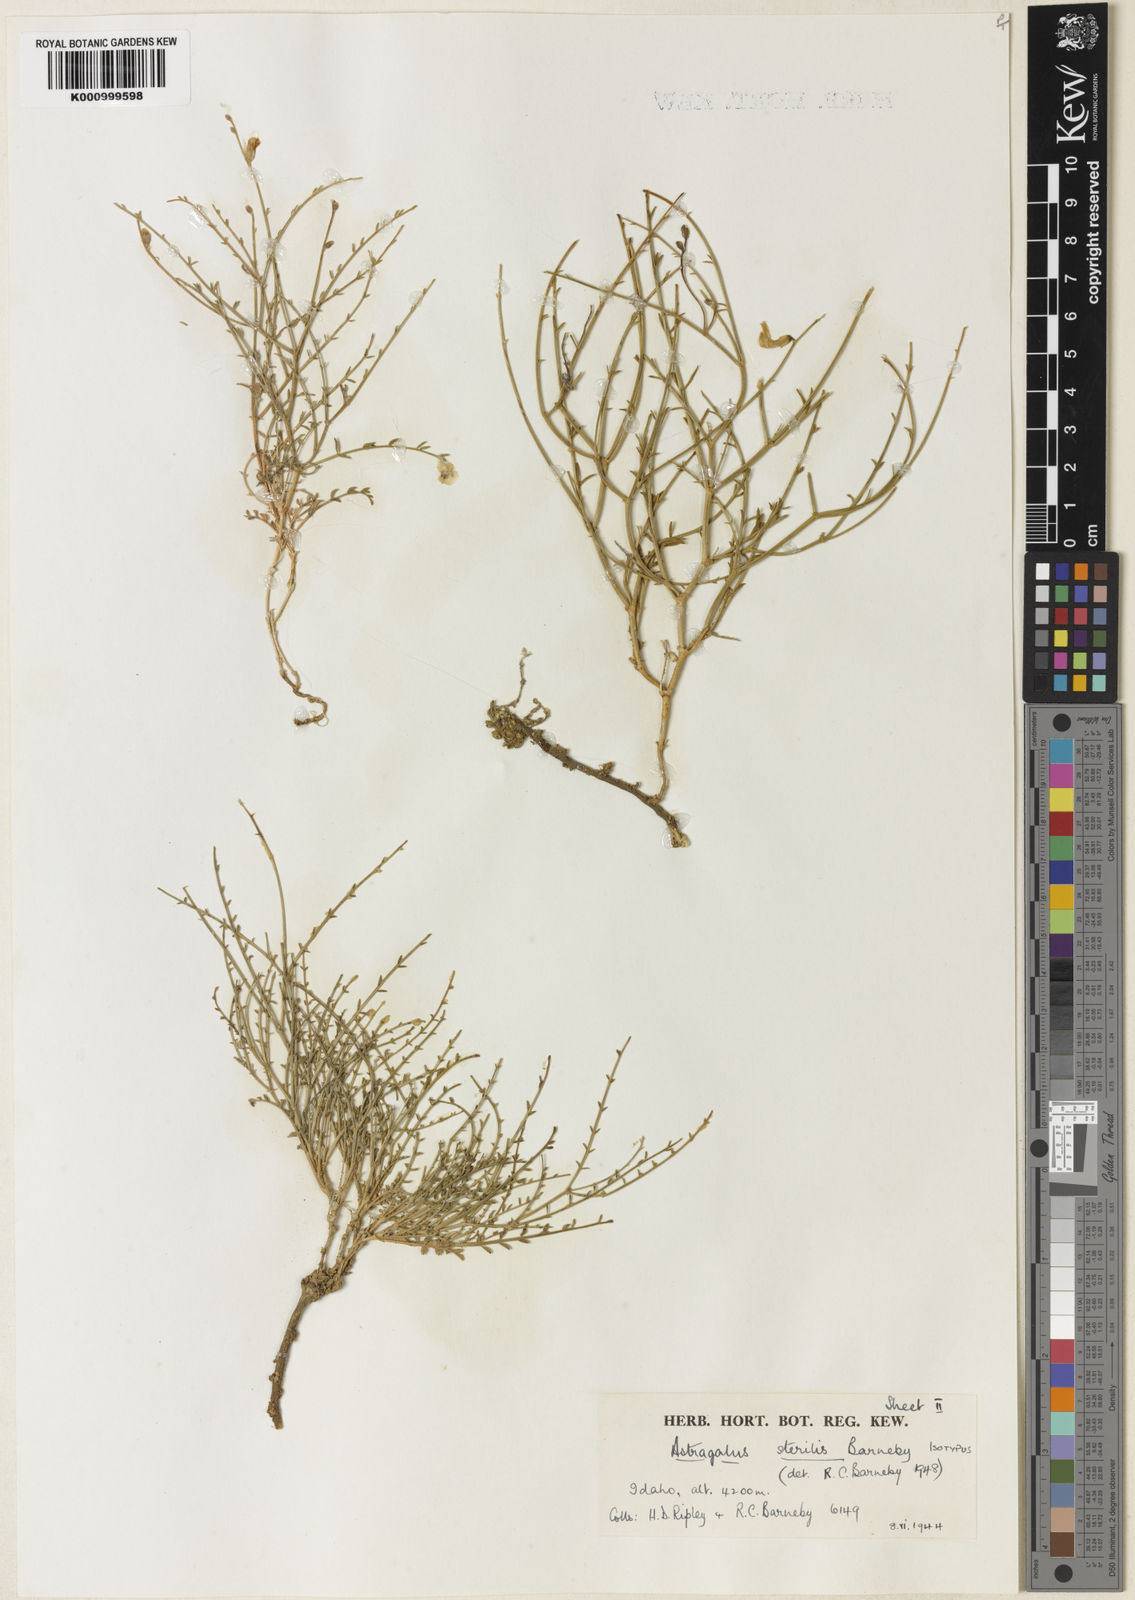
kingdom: Plantae
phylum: Tracheophyta
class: Magnoliopsida
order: Fabales
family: Fabaceae
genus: Astragalus
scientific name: Astragalus sterilis
